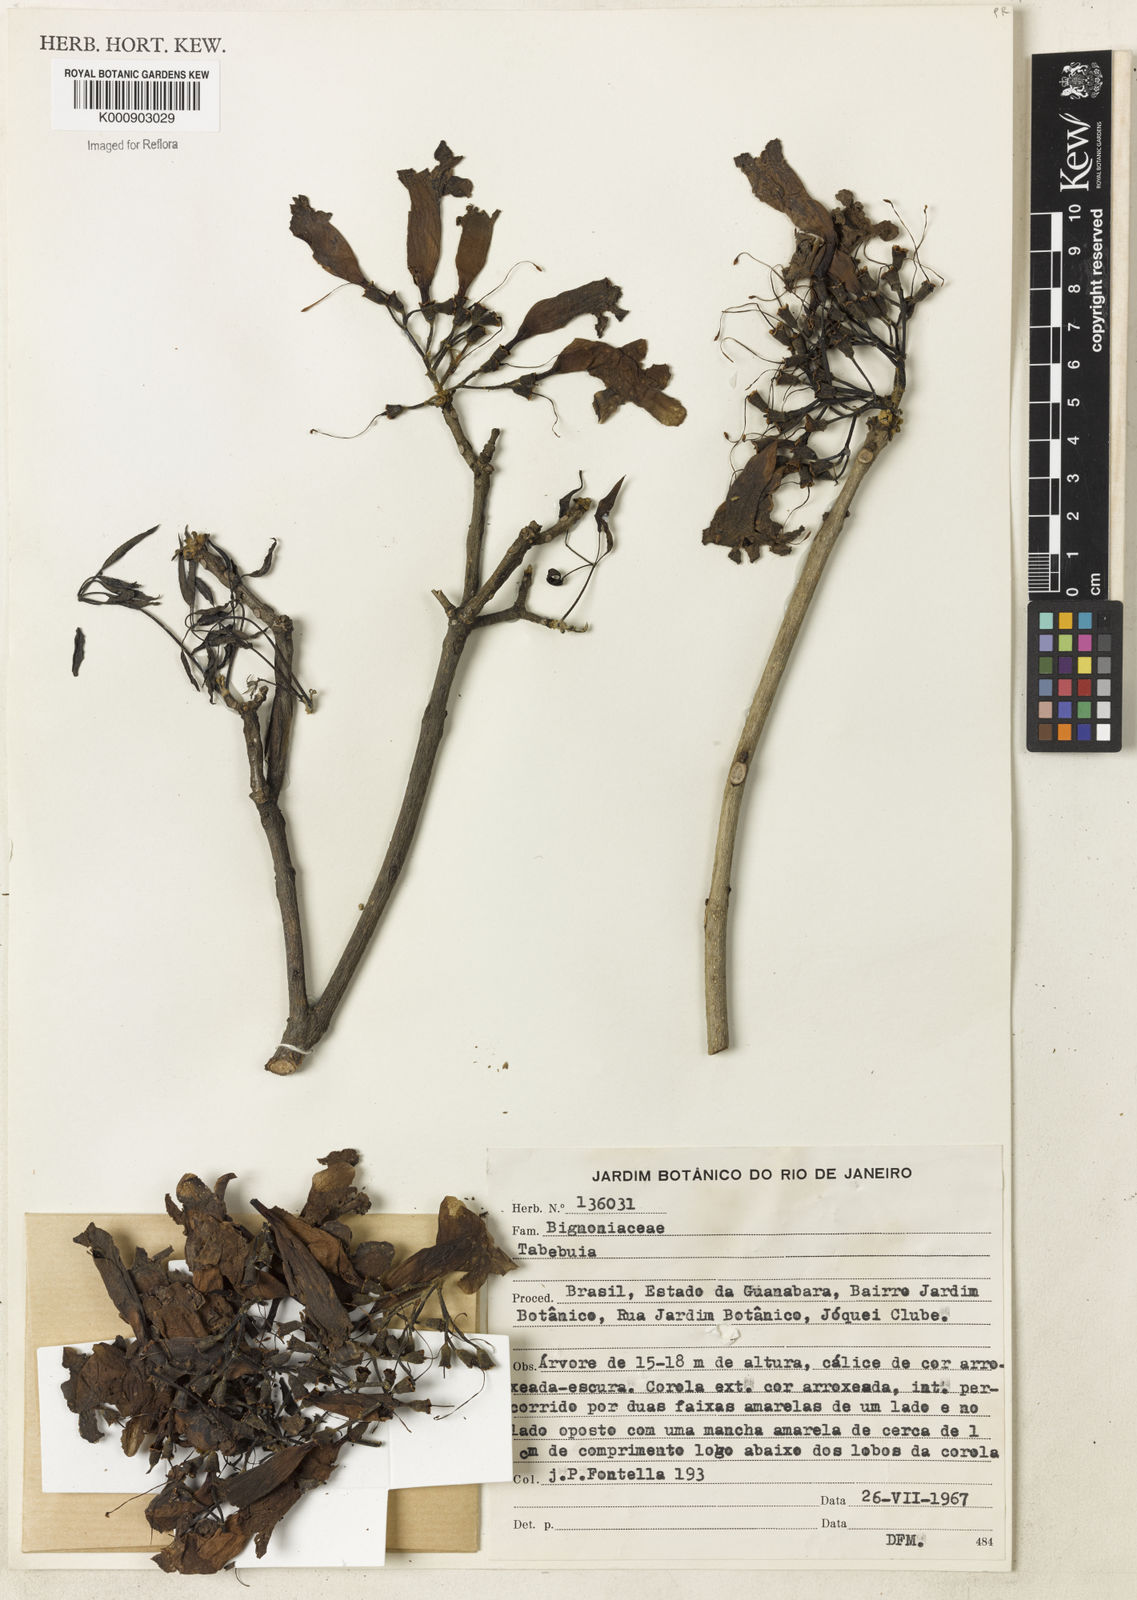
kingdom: Plantae
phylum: Tracheophyta
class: Magnoliopsida
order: Lamiales
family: Bignoniaceae
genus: Tabebuia
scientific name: Tabebuia
